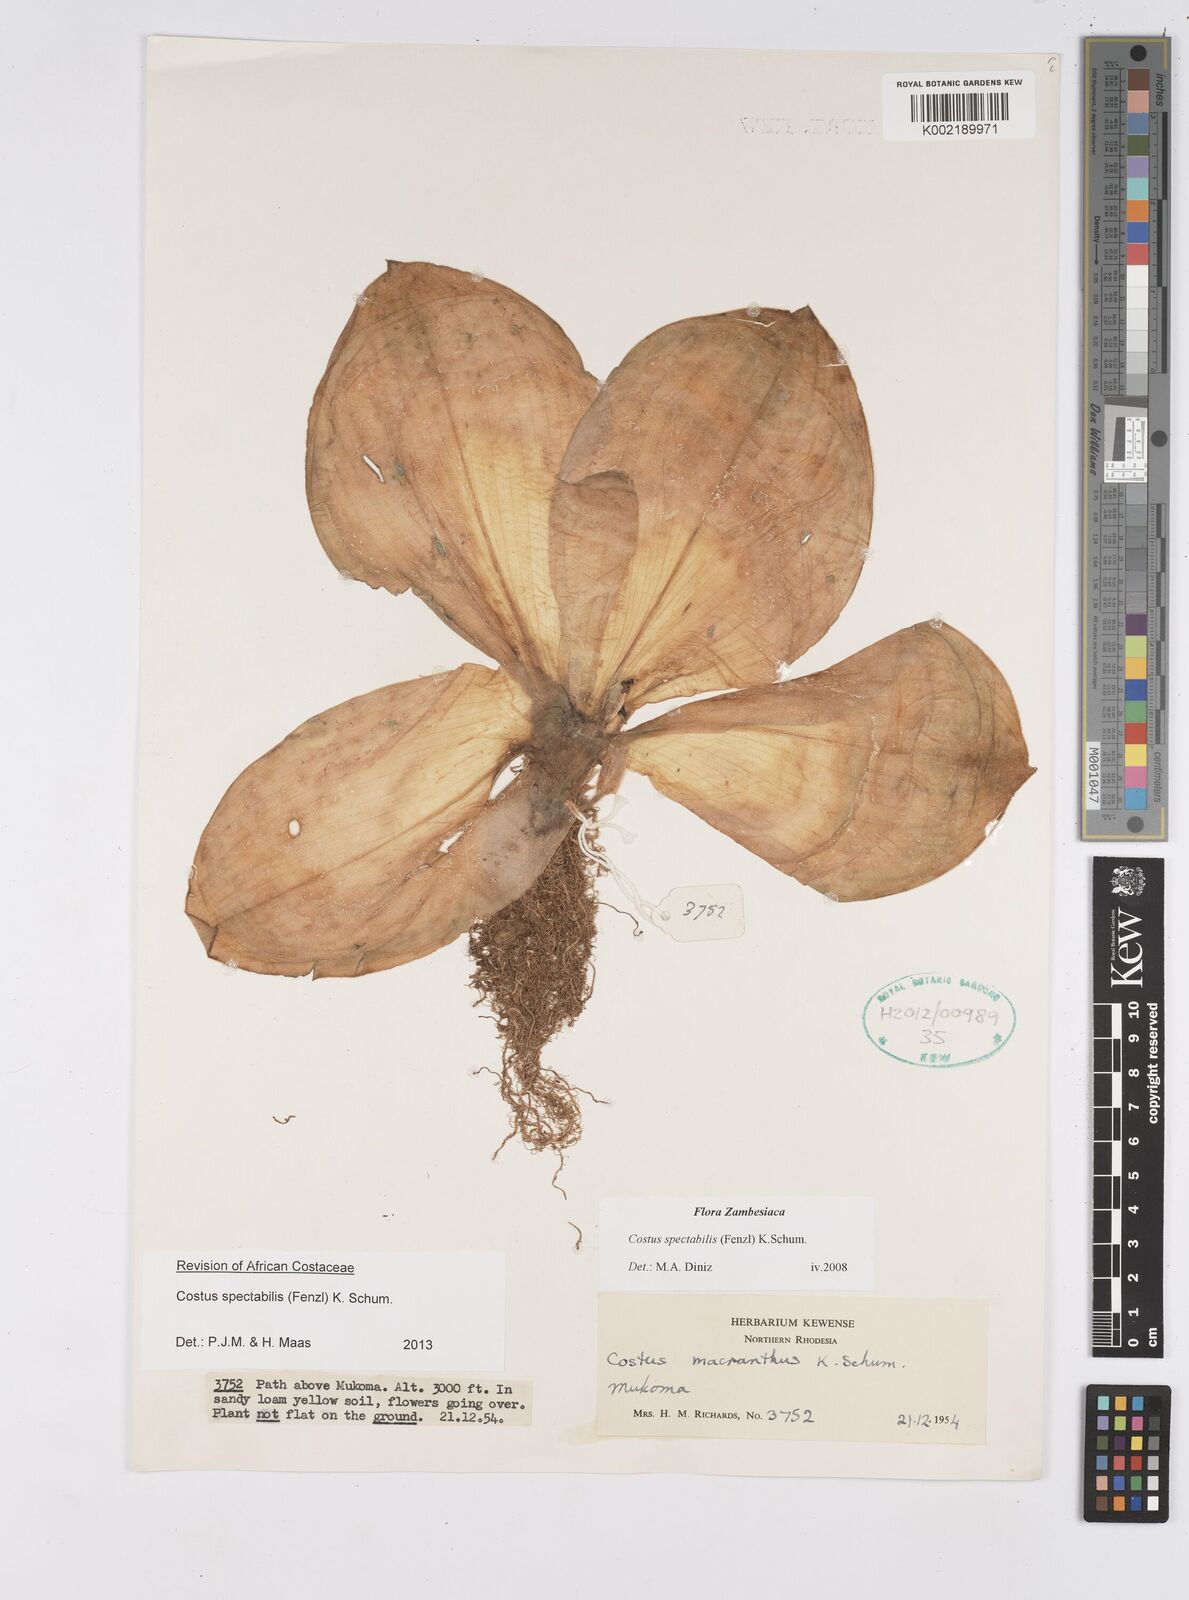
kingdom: Plantae
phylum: Tracheophyta
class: Liliopsida
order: Zingiberales
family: Costaceae
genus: Costus
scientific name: Costus spectabilis
